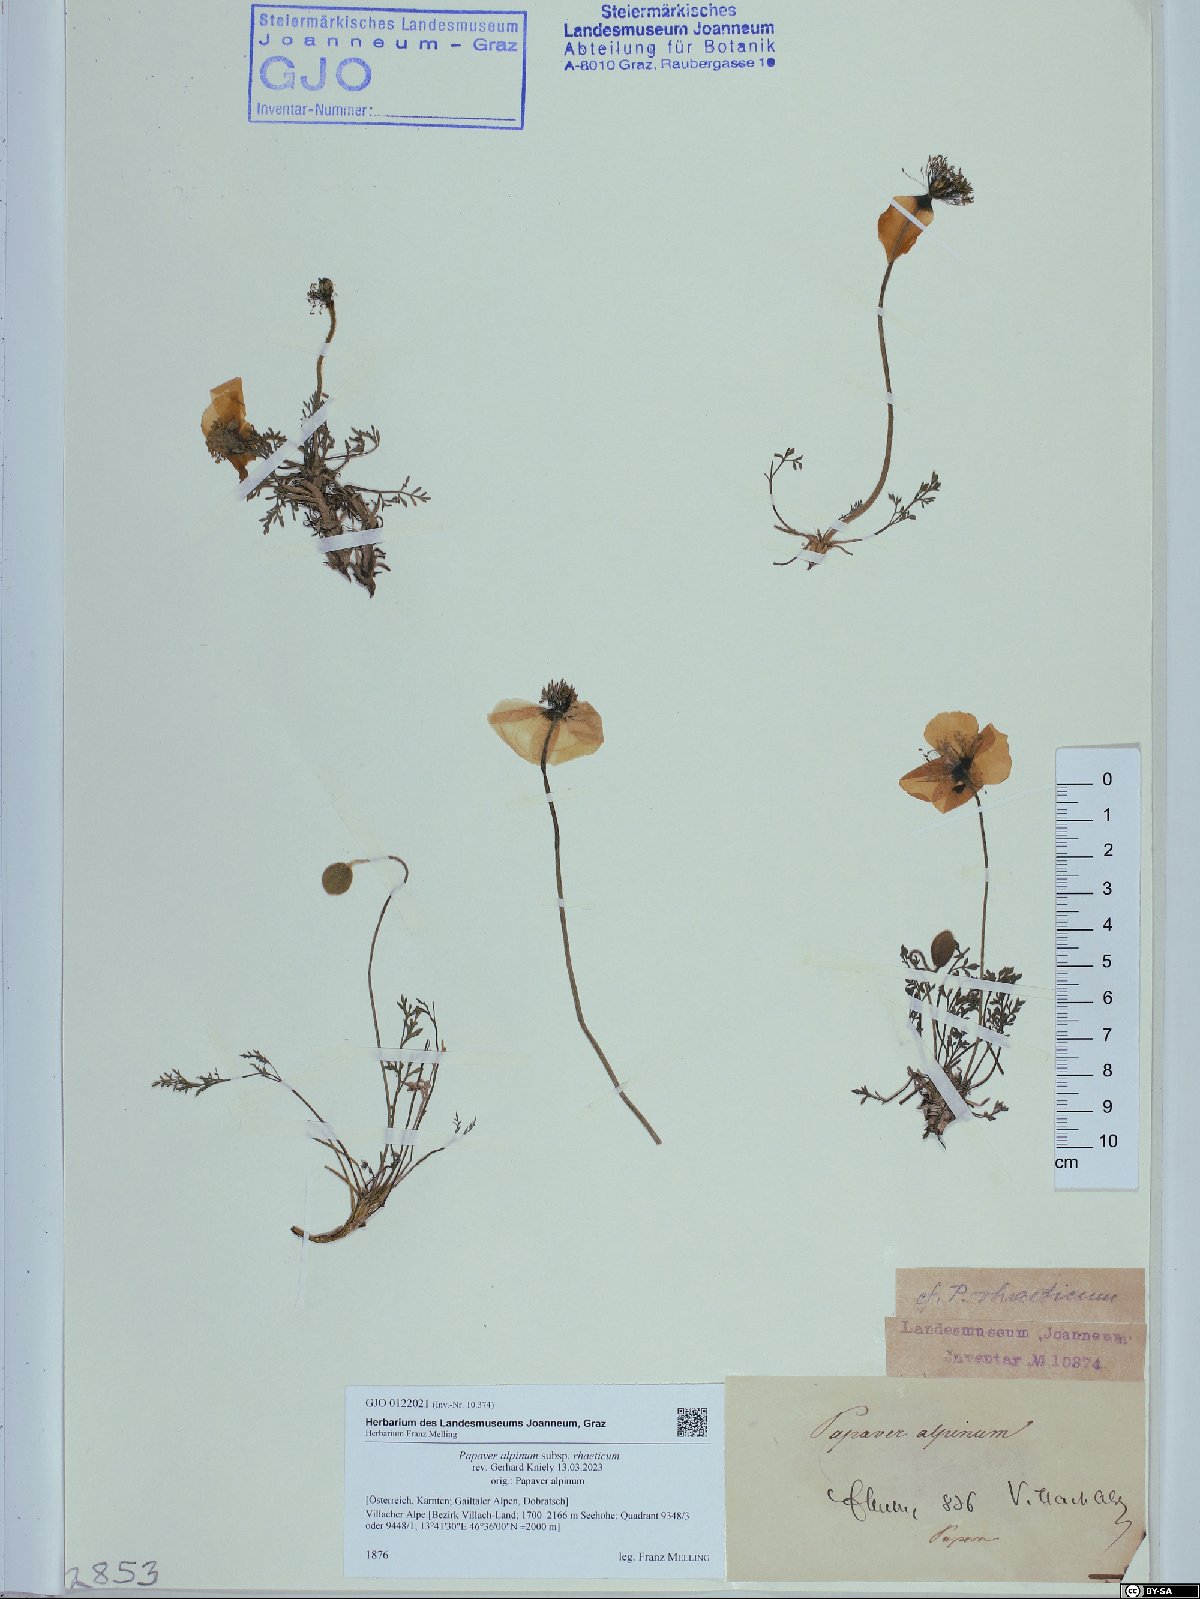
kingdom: Plantae
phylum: Tracheophyta
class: Magnoliopsida
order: Ranunculales
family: Papaveraceae
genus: Papaver
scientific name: Papaver alpinum
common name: Austrian poppy
